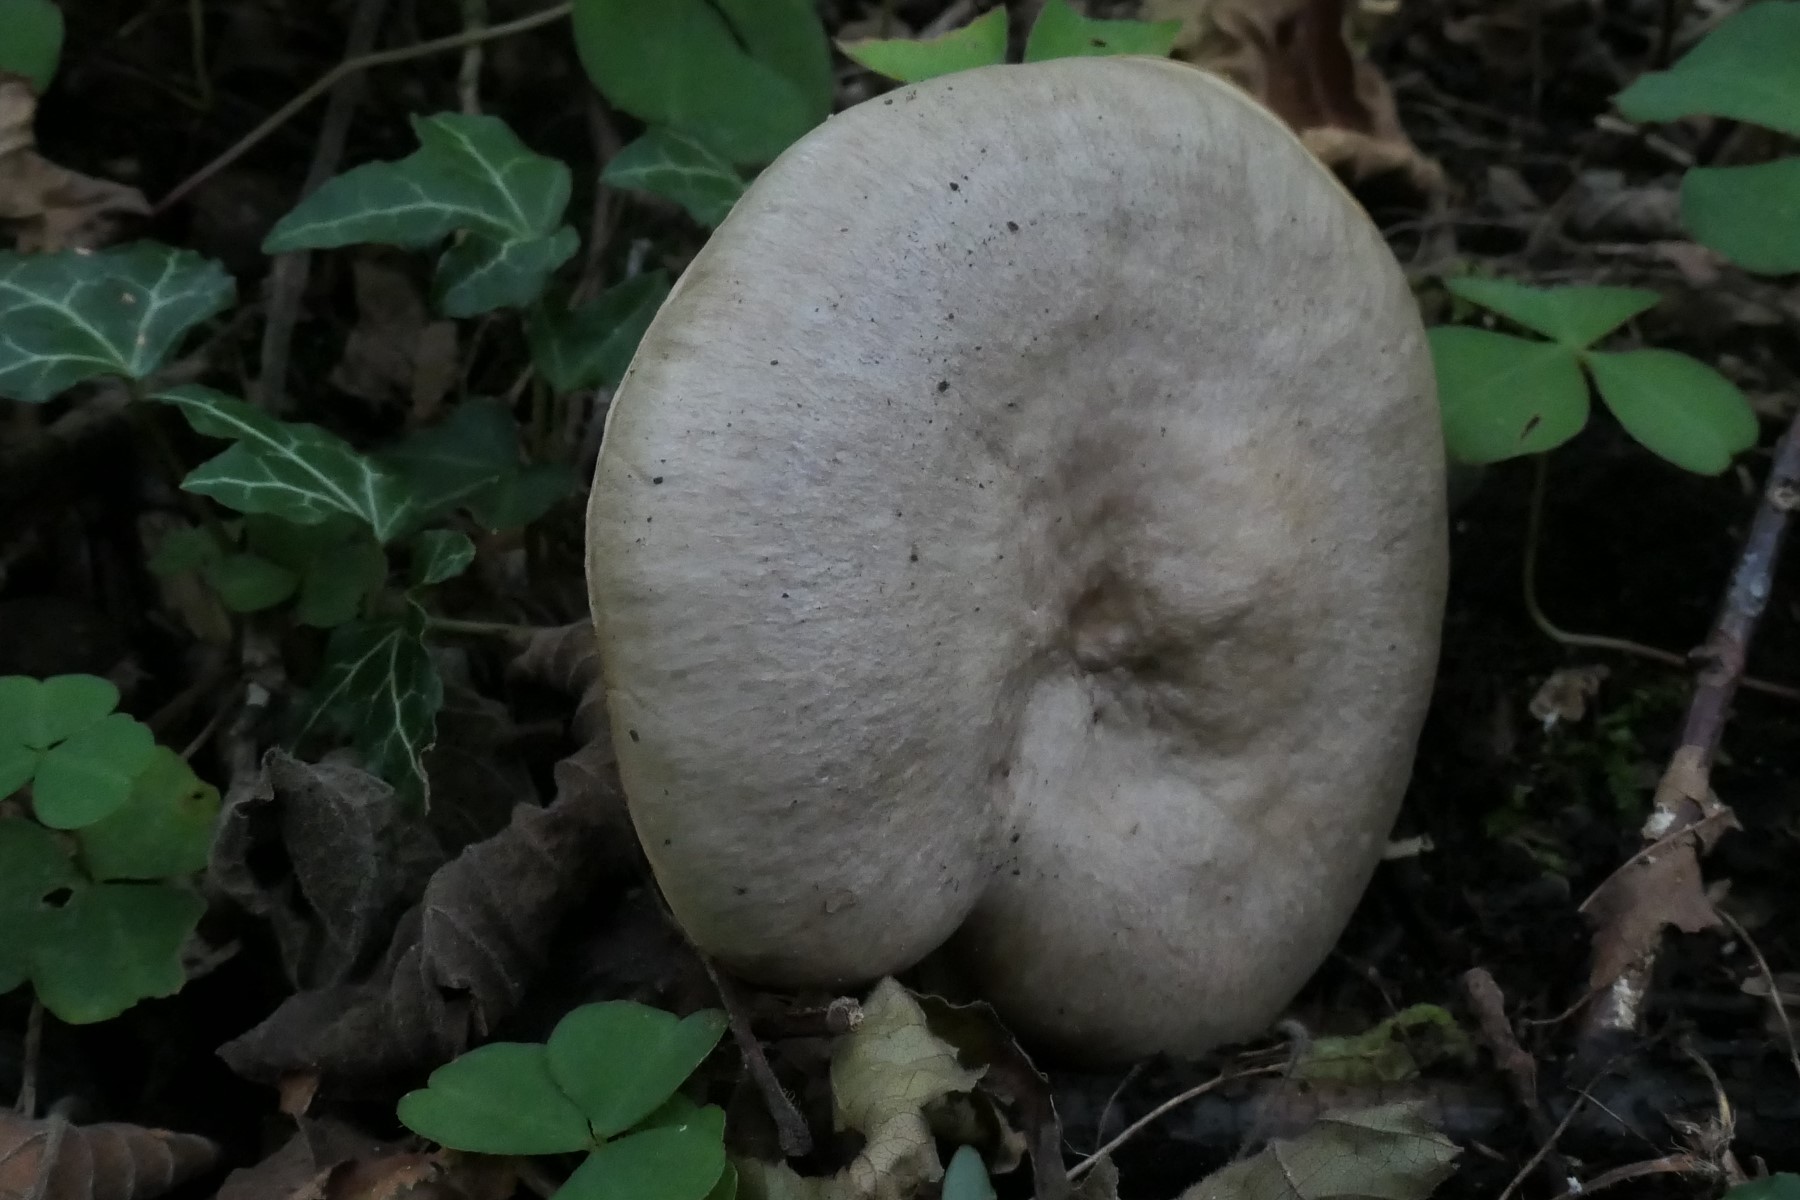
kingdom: Fungi
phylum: Basidiomycota
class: Agaricomycetes
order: Russulales
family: Russulaceae
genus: Lactarius
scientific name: Lactarius pyrogalus
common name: hassel-mælkehat
